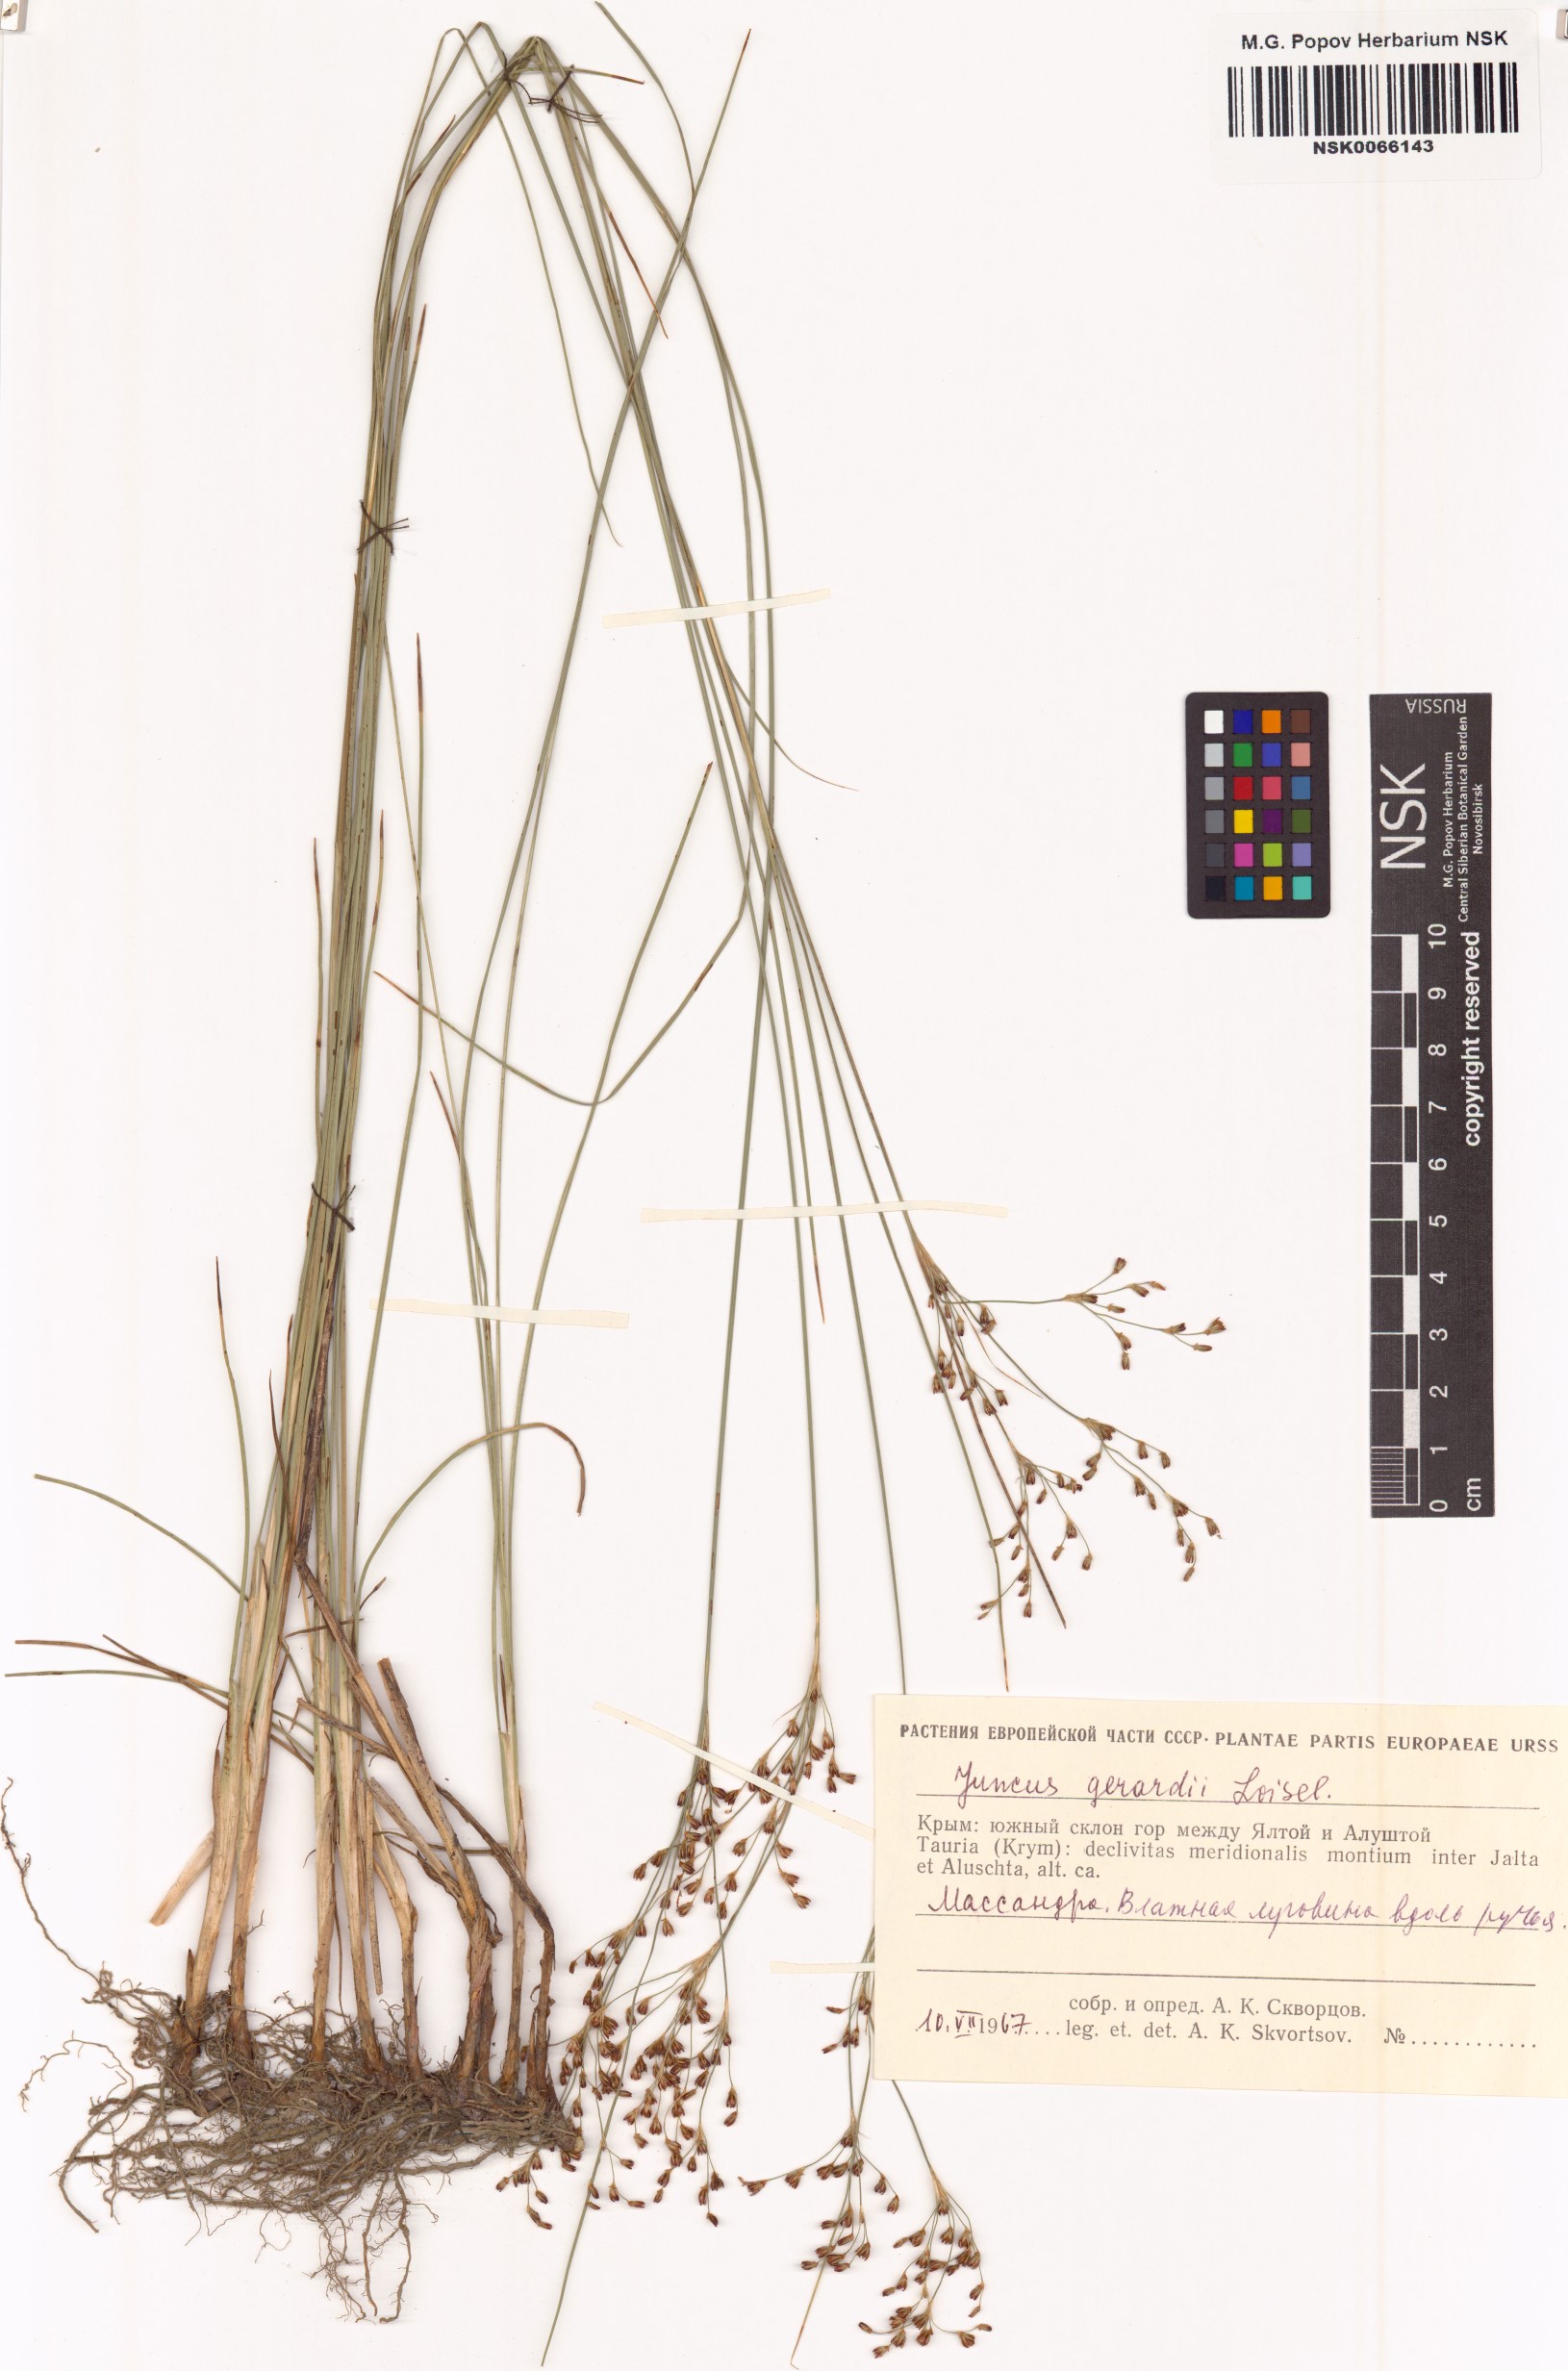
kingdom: Plantae
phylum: Tracheophyta
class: Liliopsida
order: Poales
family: Juncaceae
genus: Juncus
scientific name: Juncus gerardi
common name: Saltmarsh rush
